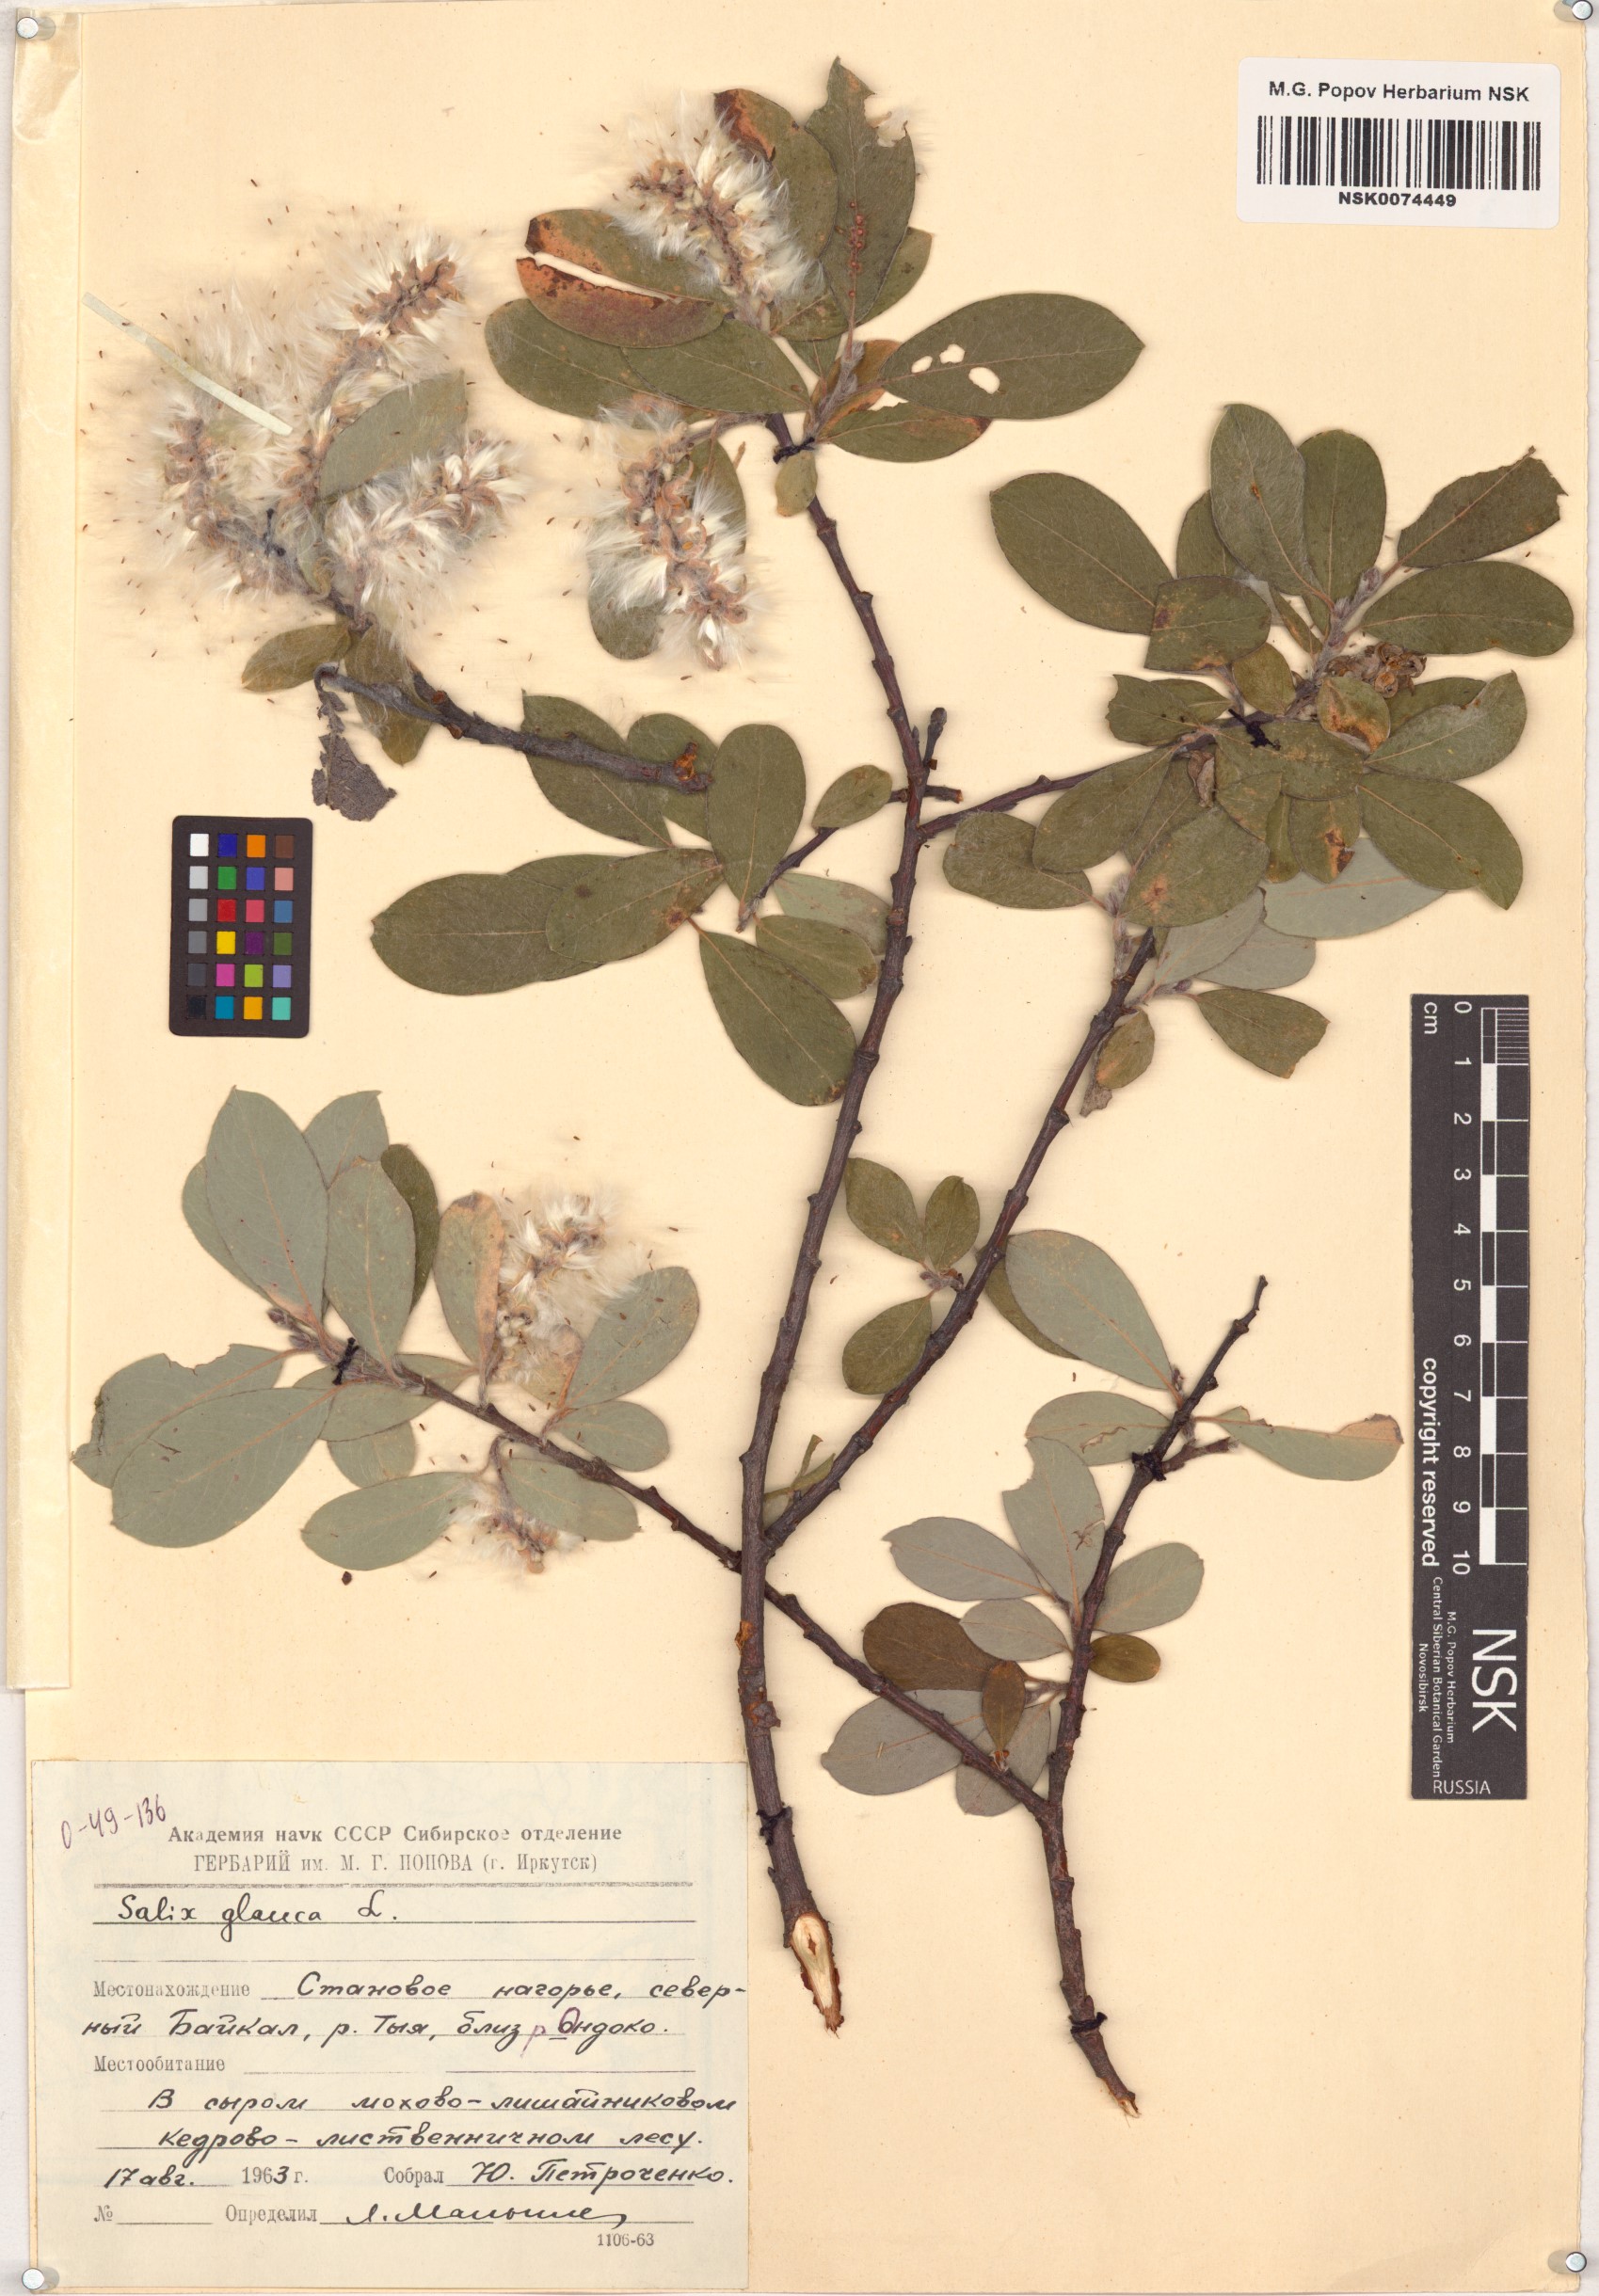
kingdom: Plantae
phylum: Tracheophyta
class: Magnoliopsida
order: Malpighiales
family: Salicaceae
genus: Salix
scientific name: Salix glauca
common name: Glaucous willow
